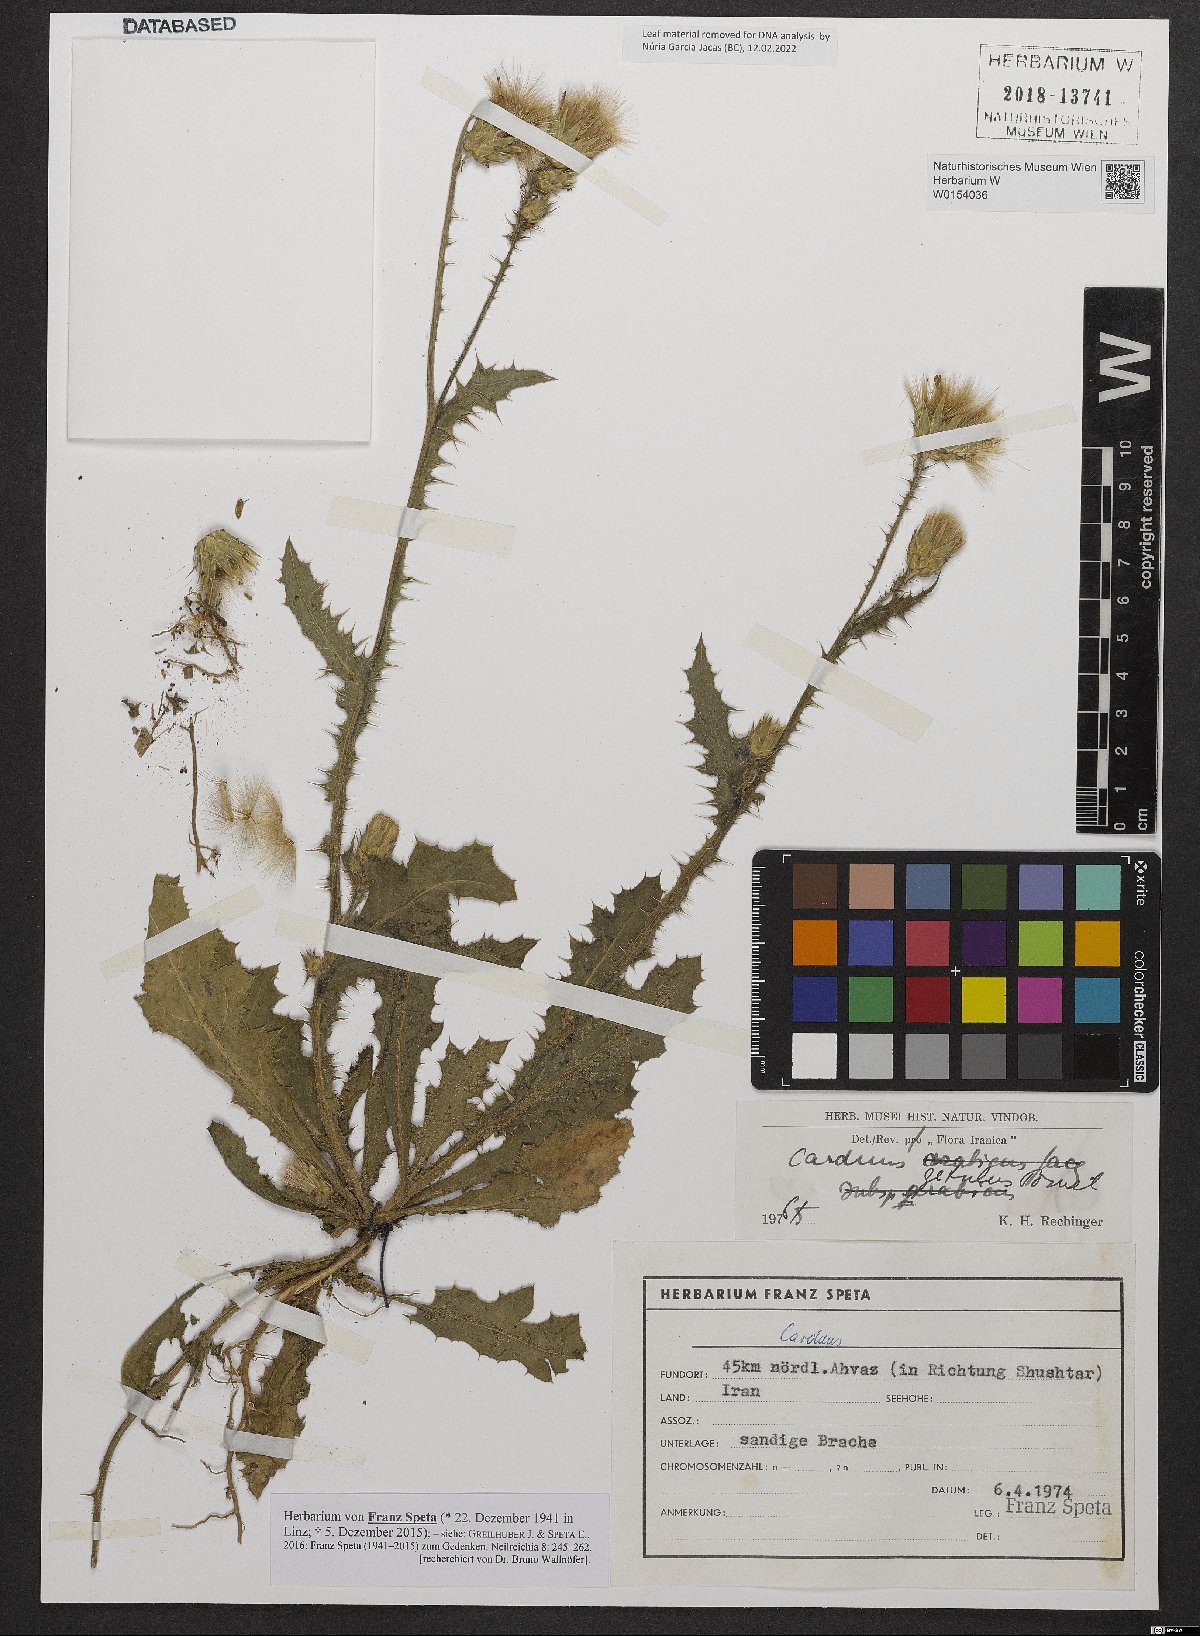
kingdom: Plantae
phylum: Tracheophyta
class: Magnoliopsida
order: Asterales
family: Asteraceae
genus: Carduus
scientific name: Carduus getulus
